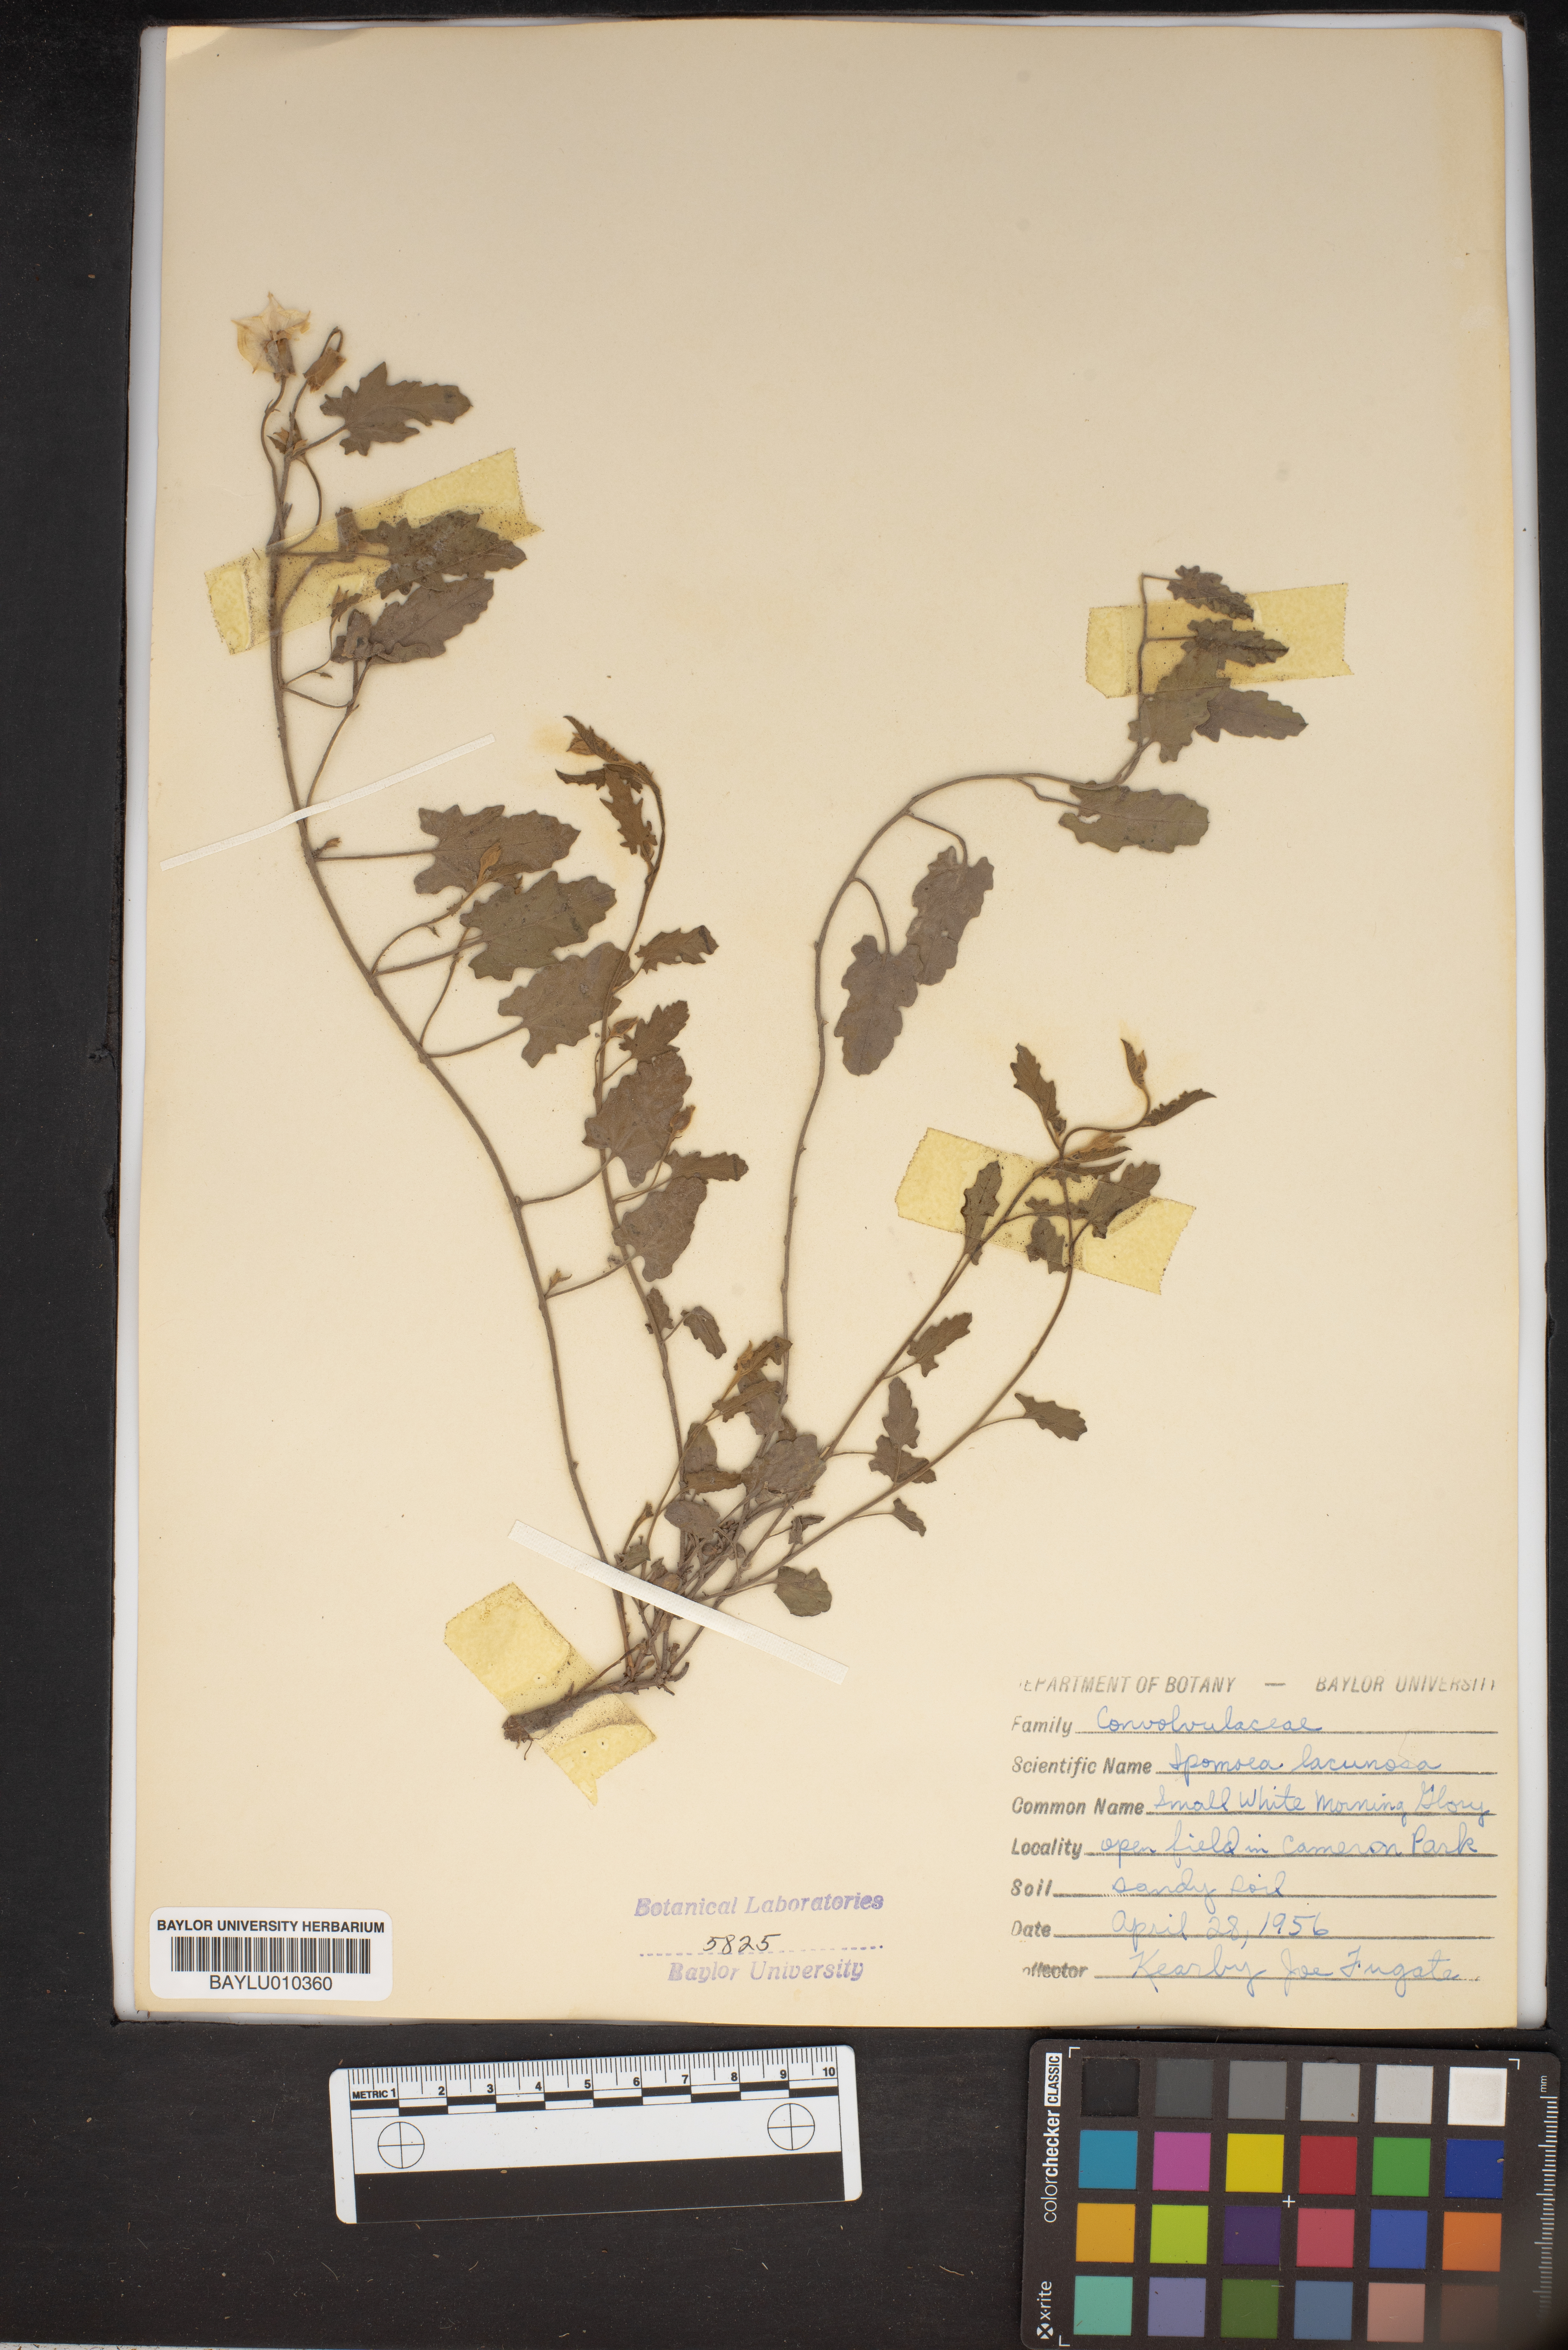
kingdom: Plantae
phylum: Tracheophyta
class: Magnoliopsida
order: Solanales
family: Convolvulaceae
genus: Ipomoea
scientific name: Ipomoea lacunosa
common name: White morning-glory
